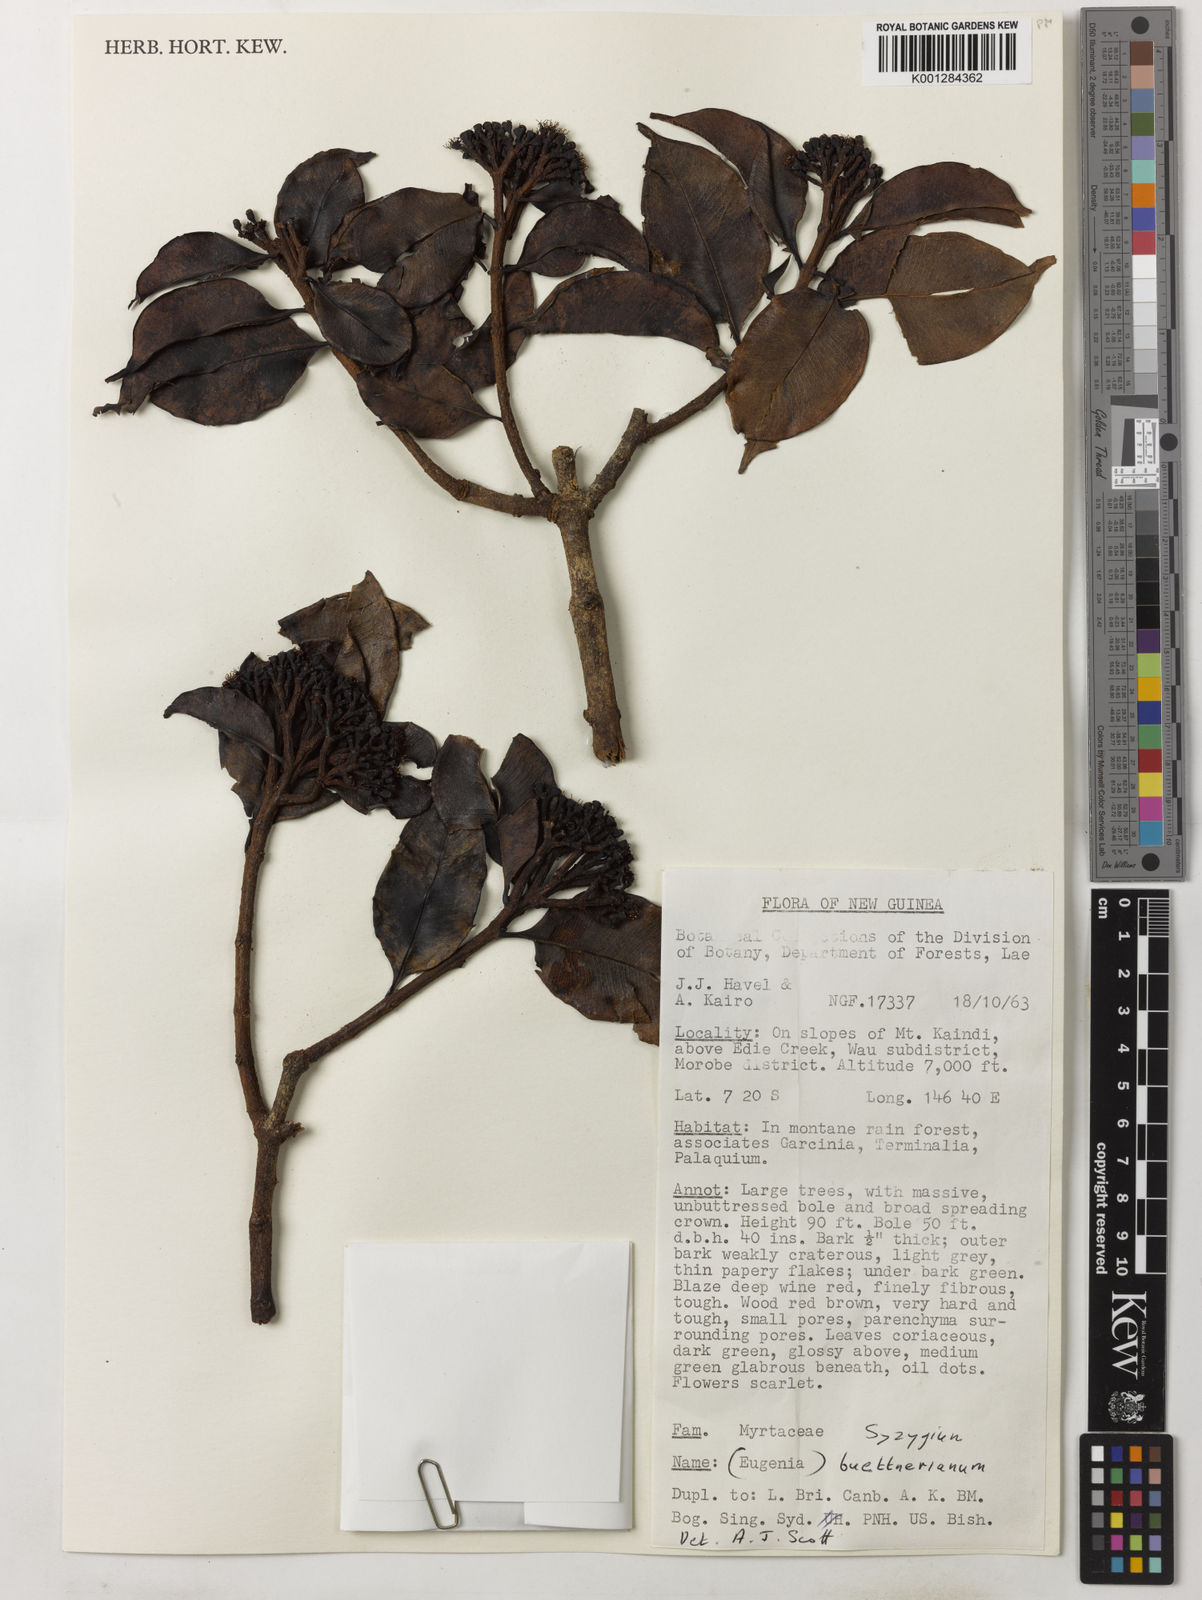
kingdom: Plantae
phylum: Tracheophyta
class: Magnoliopsida
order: Myrtales
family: Myrtaceae
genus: Syzygium
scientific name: Syzygium buettnerianum
